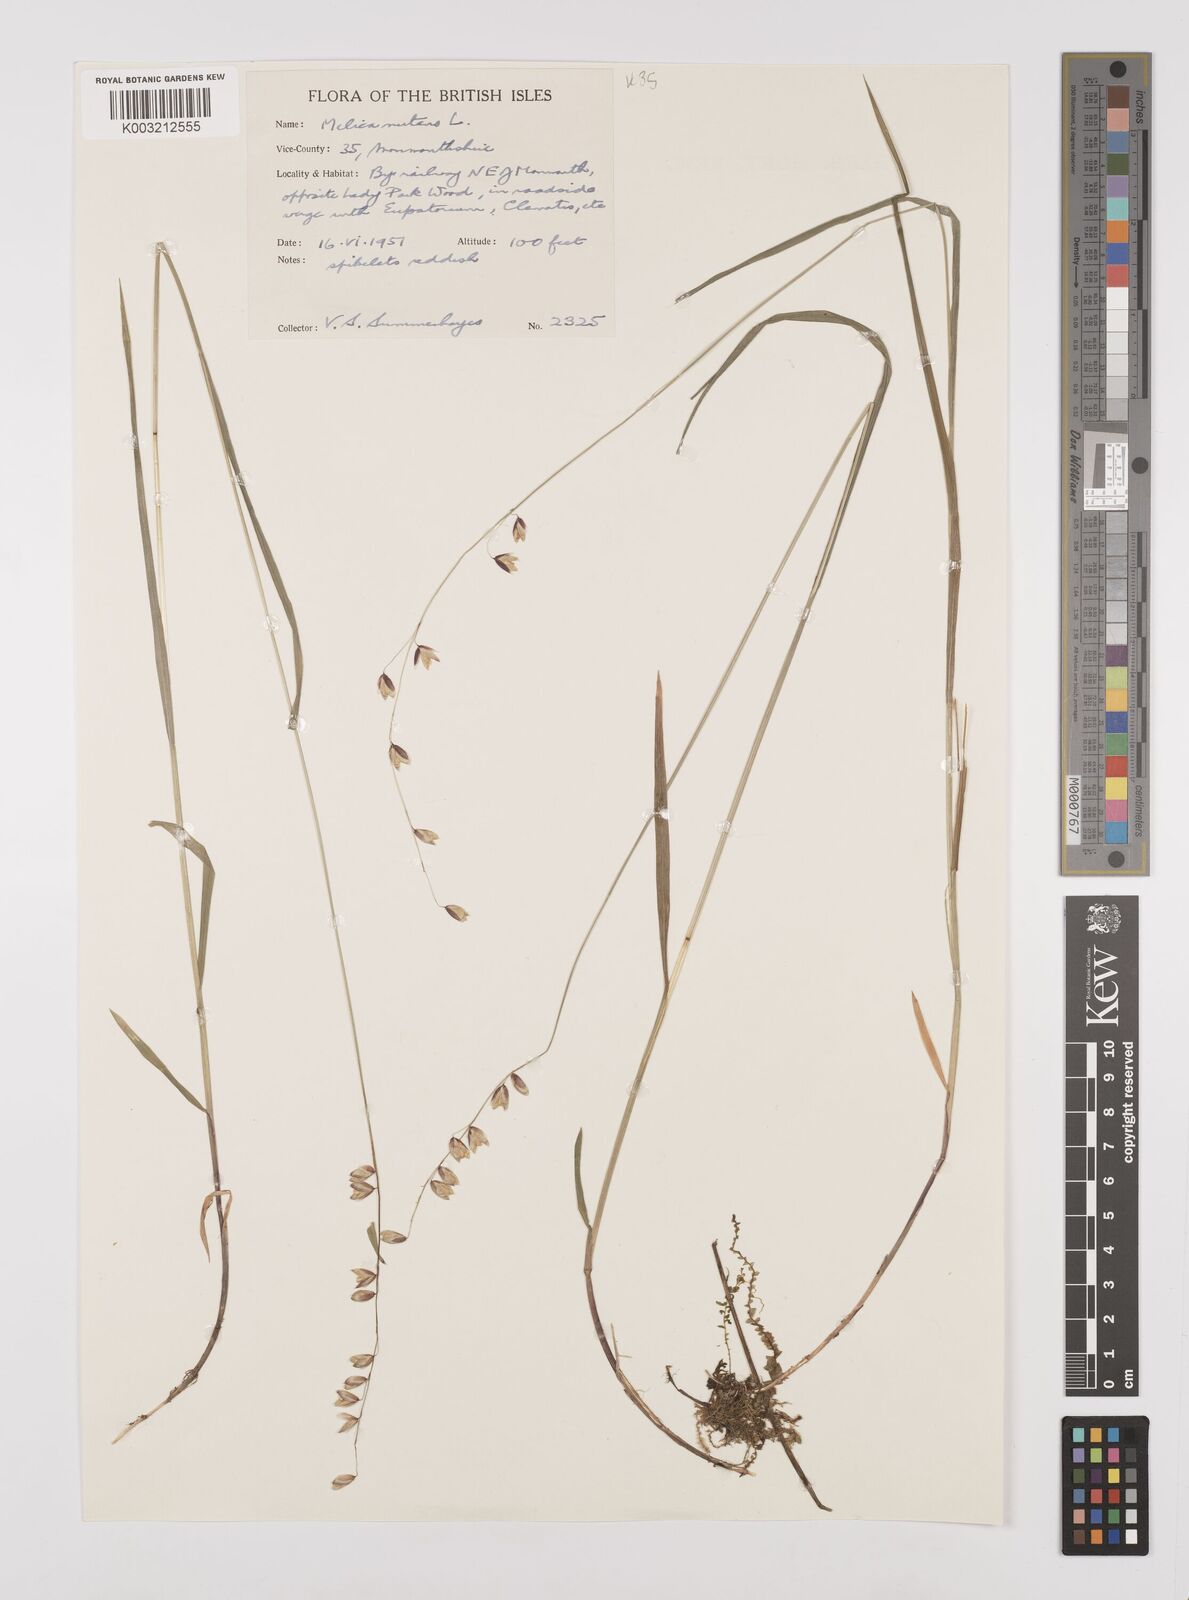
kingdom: Plantae
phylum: Tracheophyta
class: Liliopsida
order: Poales
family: Poaceae
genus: Melica
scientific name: Melica
